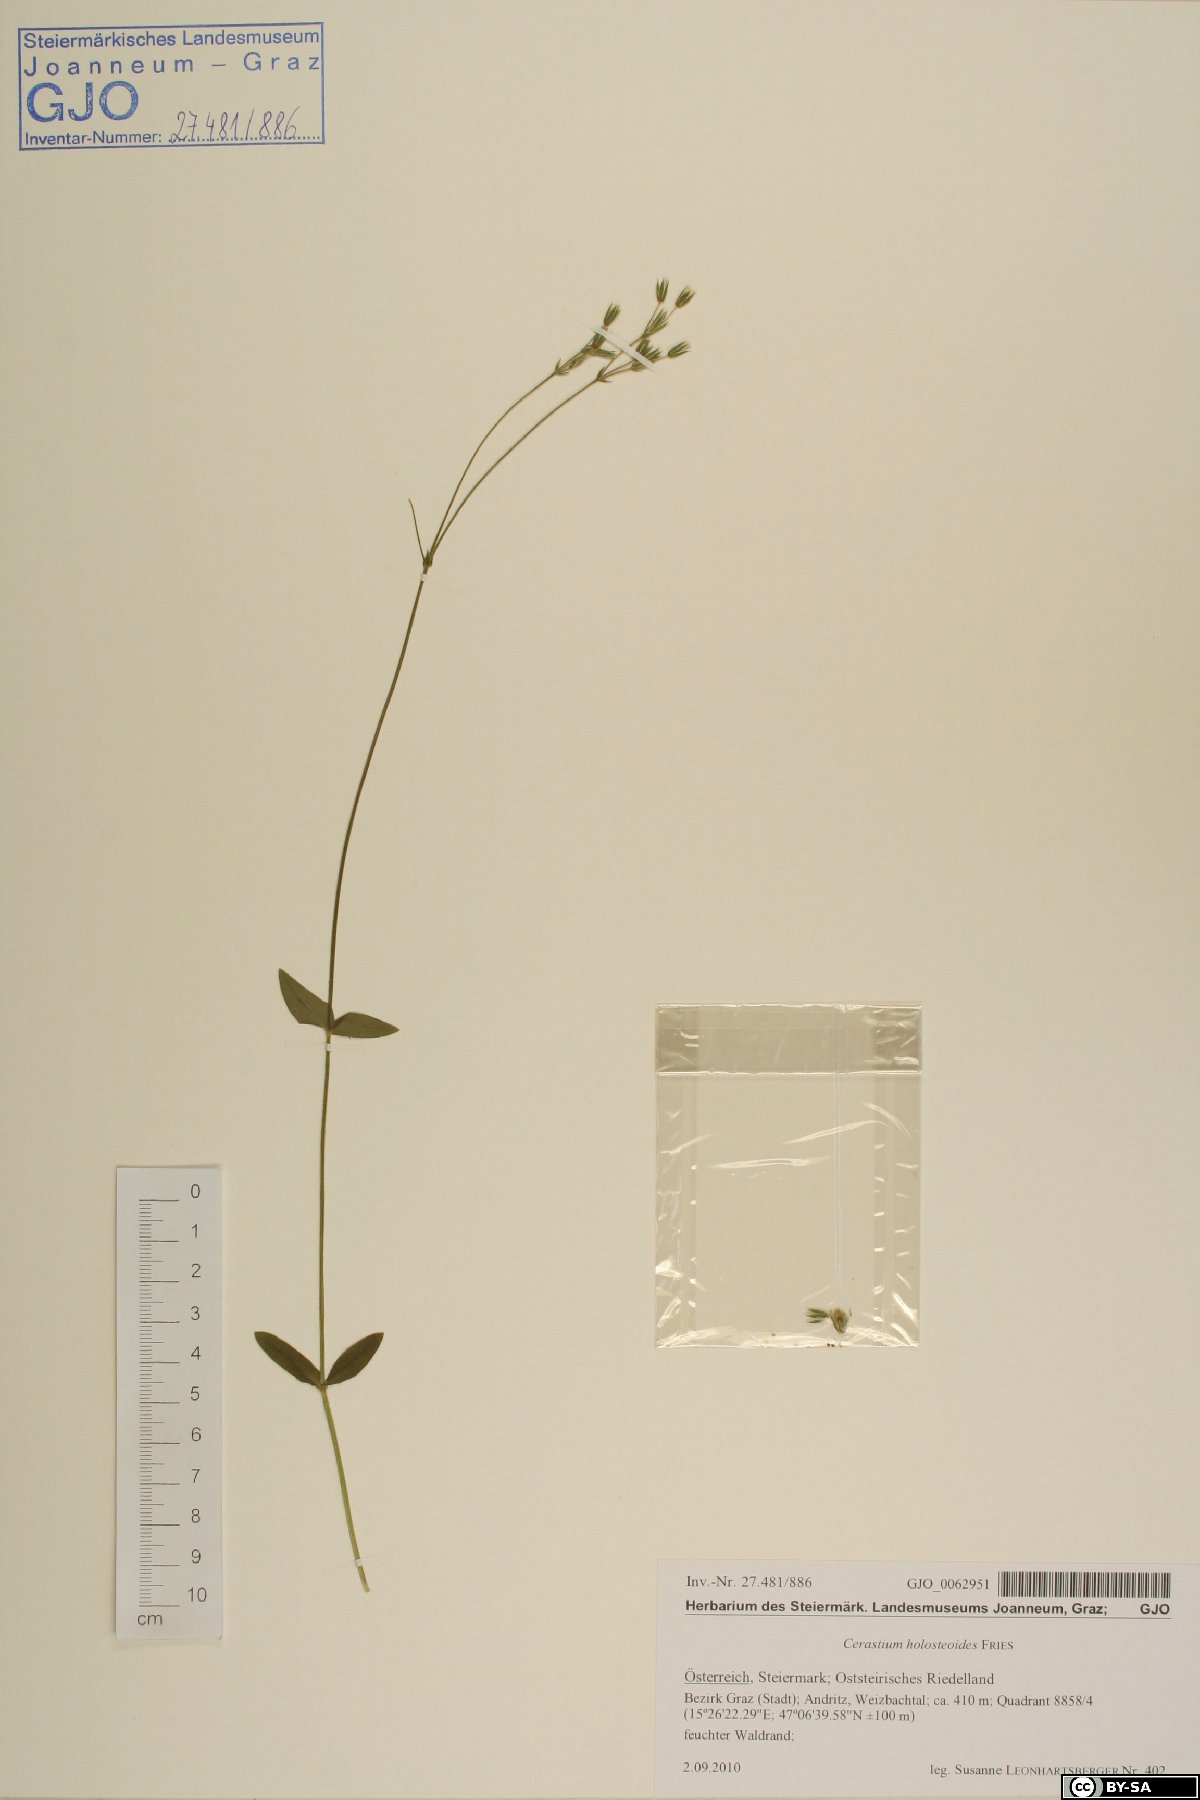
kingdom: Plantae
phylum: Tracheophyta
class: Magnoliopsida
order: Caryophyllales
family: Caryophyllaceae
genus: Cerastium
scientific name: Cerastium holosteoides
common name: Big chickweed
